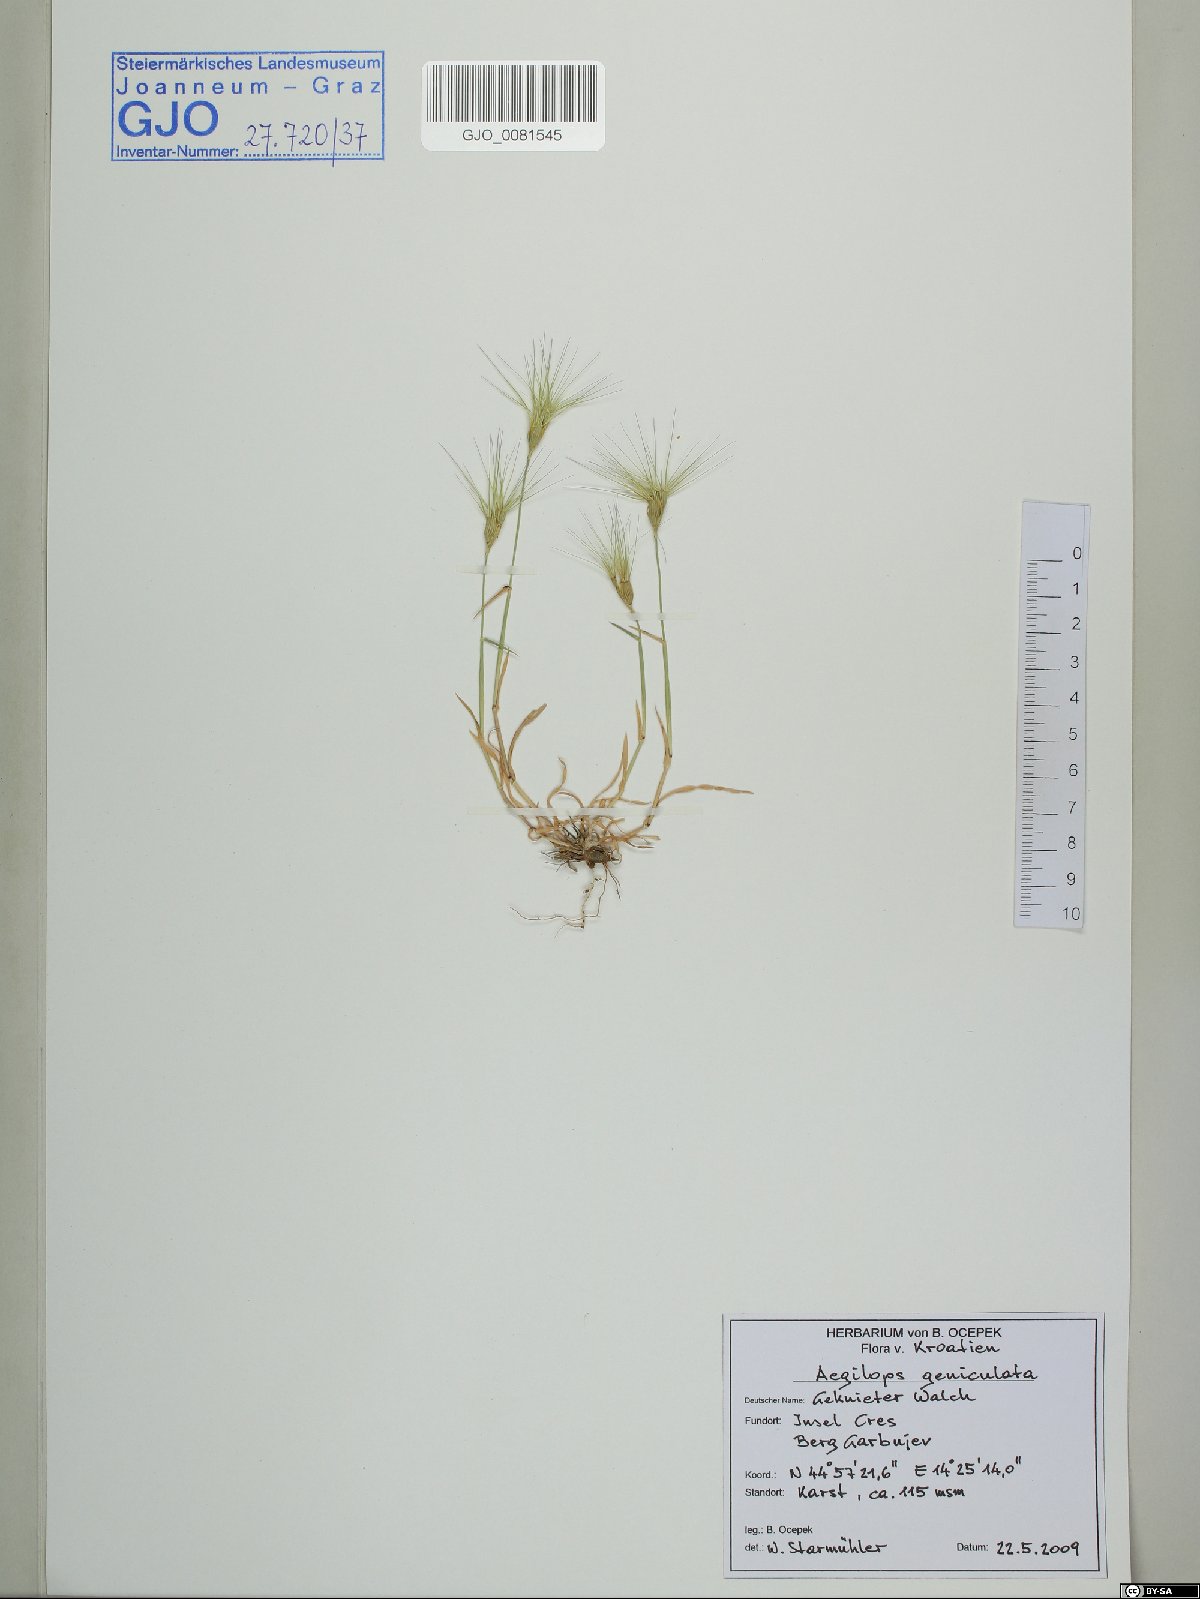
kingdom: Plantae
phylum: Tracheophyta
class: Liliopsida
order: Poales
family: Poaceae
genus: Aegilops
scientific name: Aegilops geniculata
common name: Ovate goat grass
